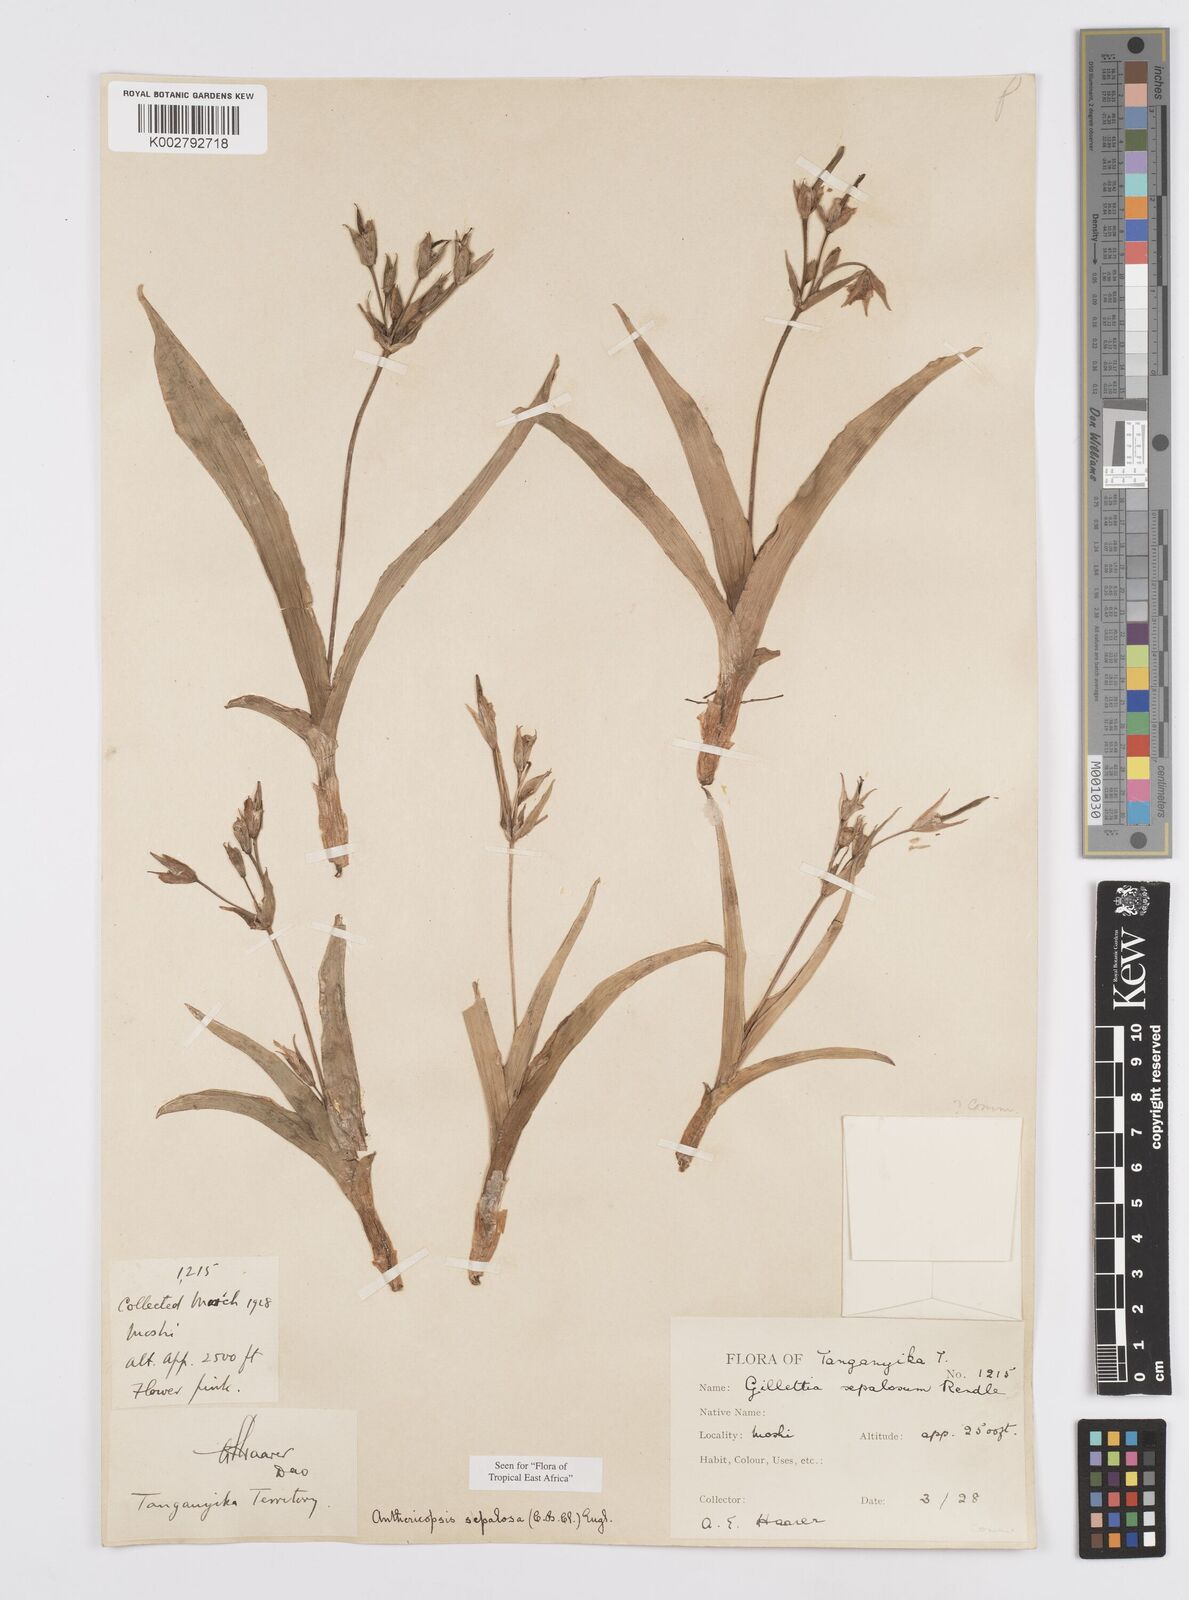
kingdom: Plantae
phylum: Tracheophyta
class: Liliopsida
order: Commelinales
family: Commelinaceae
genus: Anthericopsis
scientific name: Anthericopsis sepalosa
